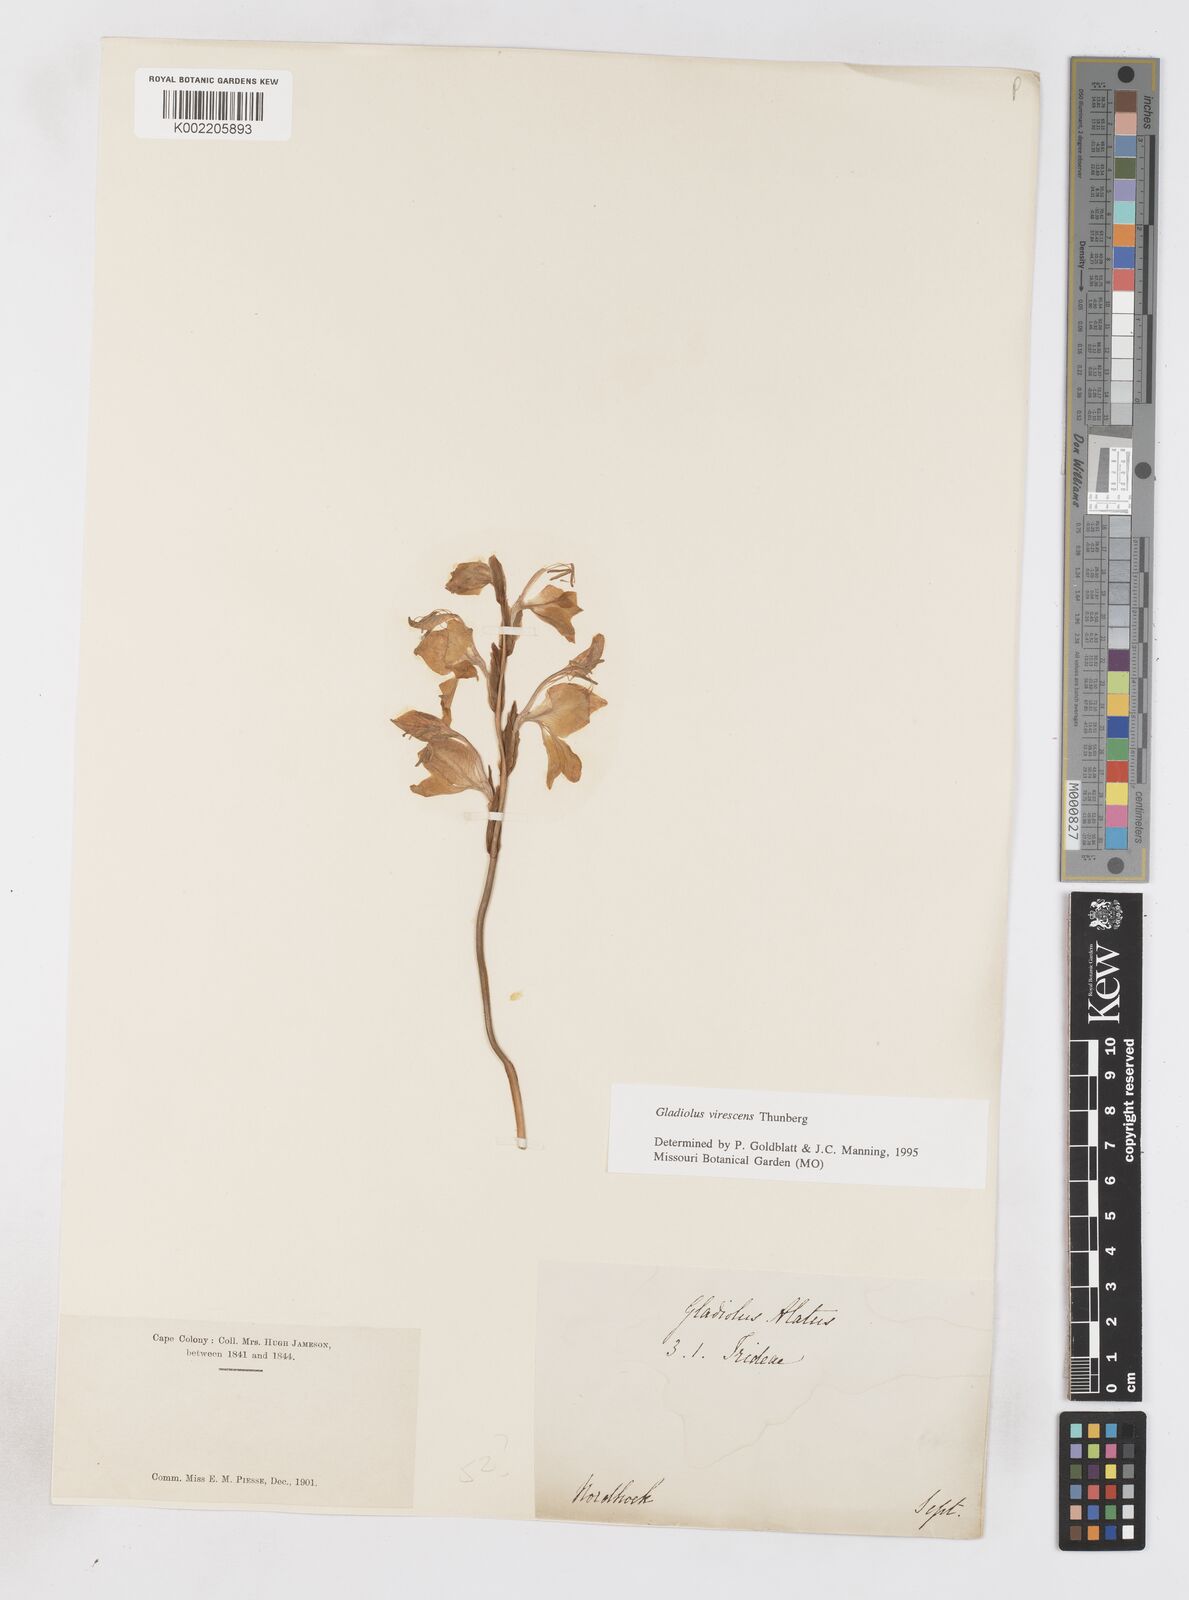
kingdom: Plantae
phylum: Tracheophyta
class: Liliopsida
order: Asparagales
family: Iridaceae
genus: Gladiolus
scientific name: Gladiolus virescens
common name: Yellow kalkoentjie
